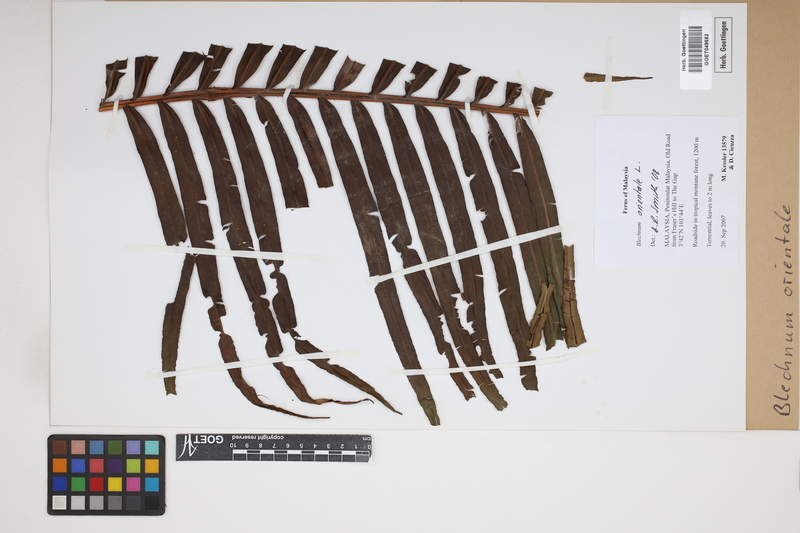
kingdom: Plantae
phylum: Tracheophyta
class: Polypodiopsida
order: Polypodiales
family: Blechnaceae
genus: Blechnopsis
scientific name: Blechnopsis orientalis
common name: Oriental blechnum
